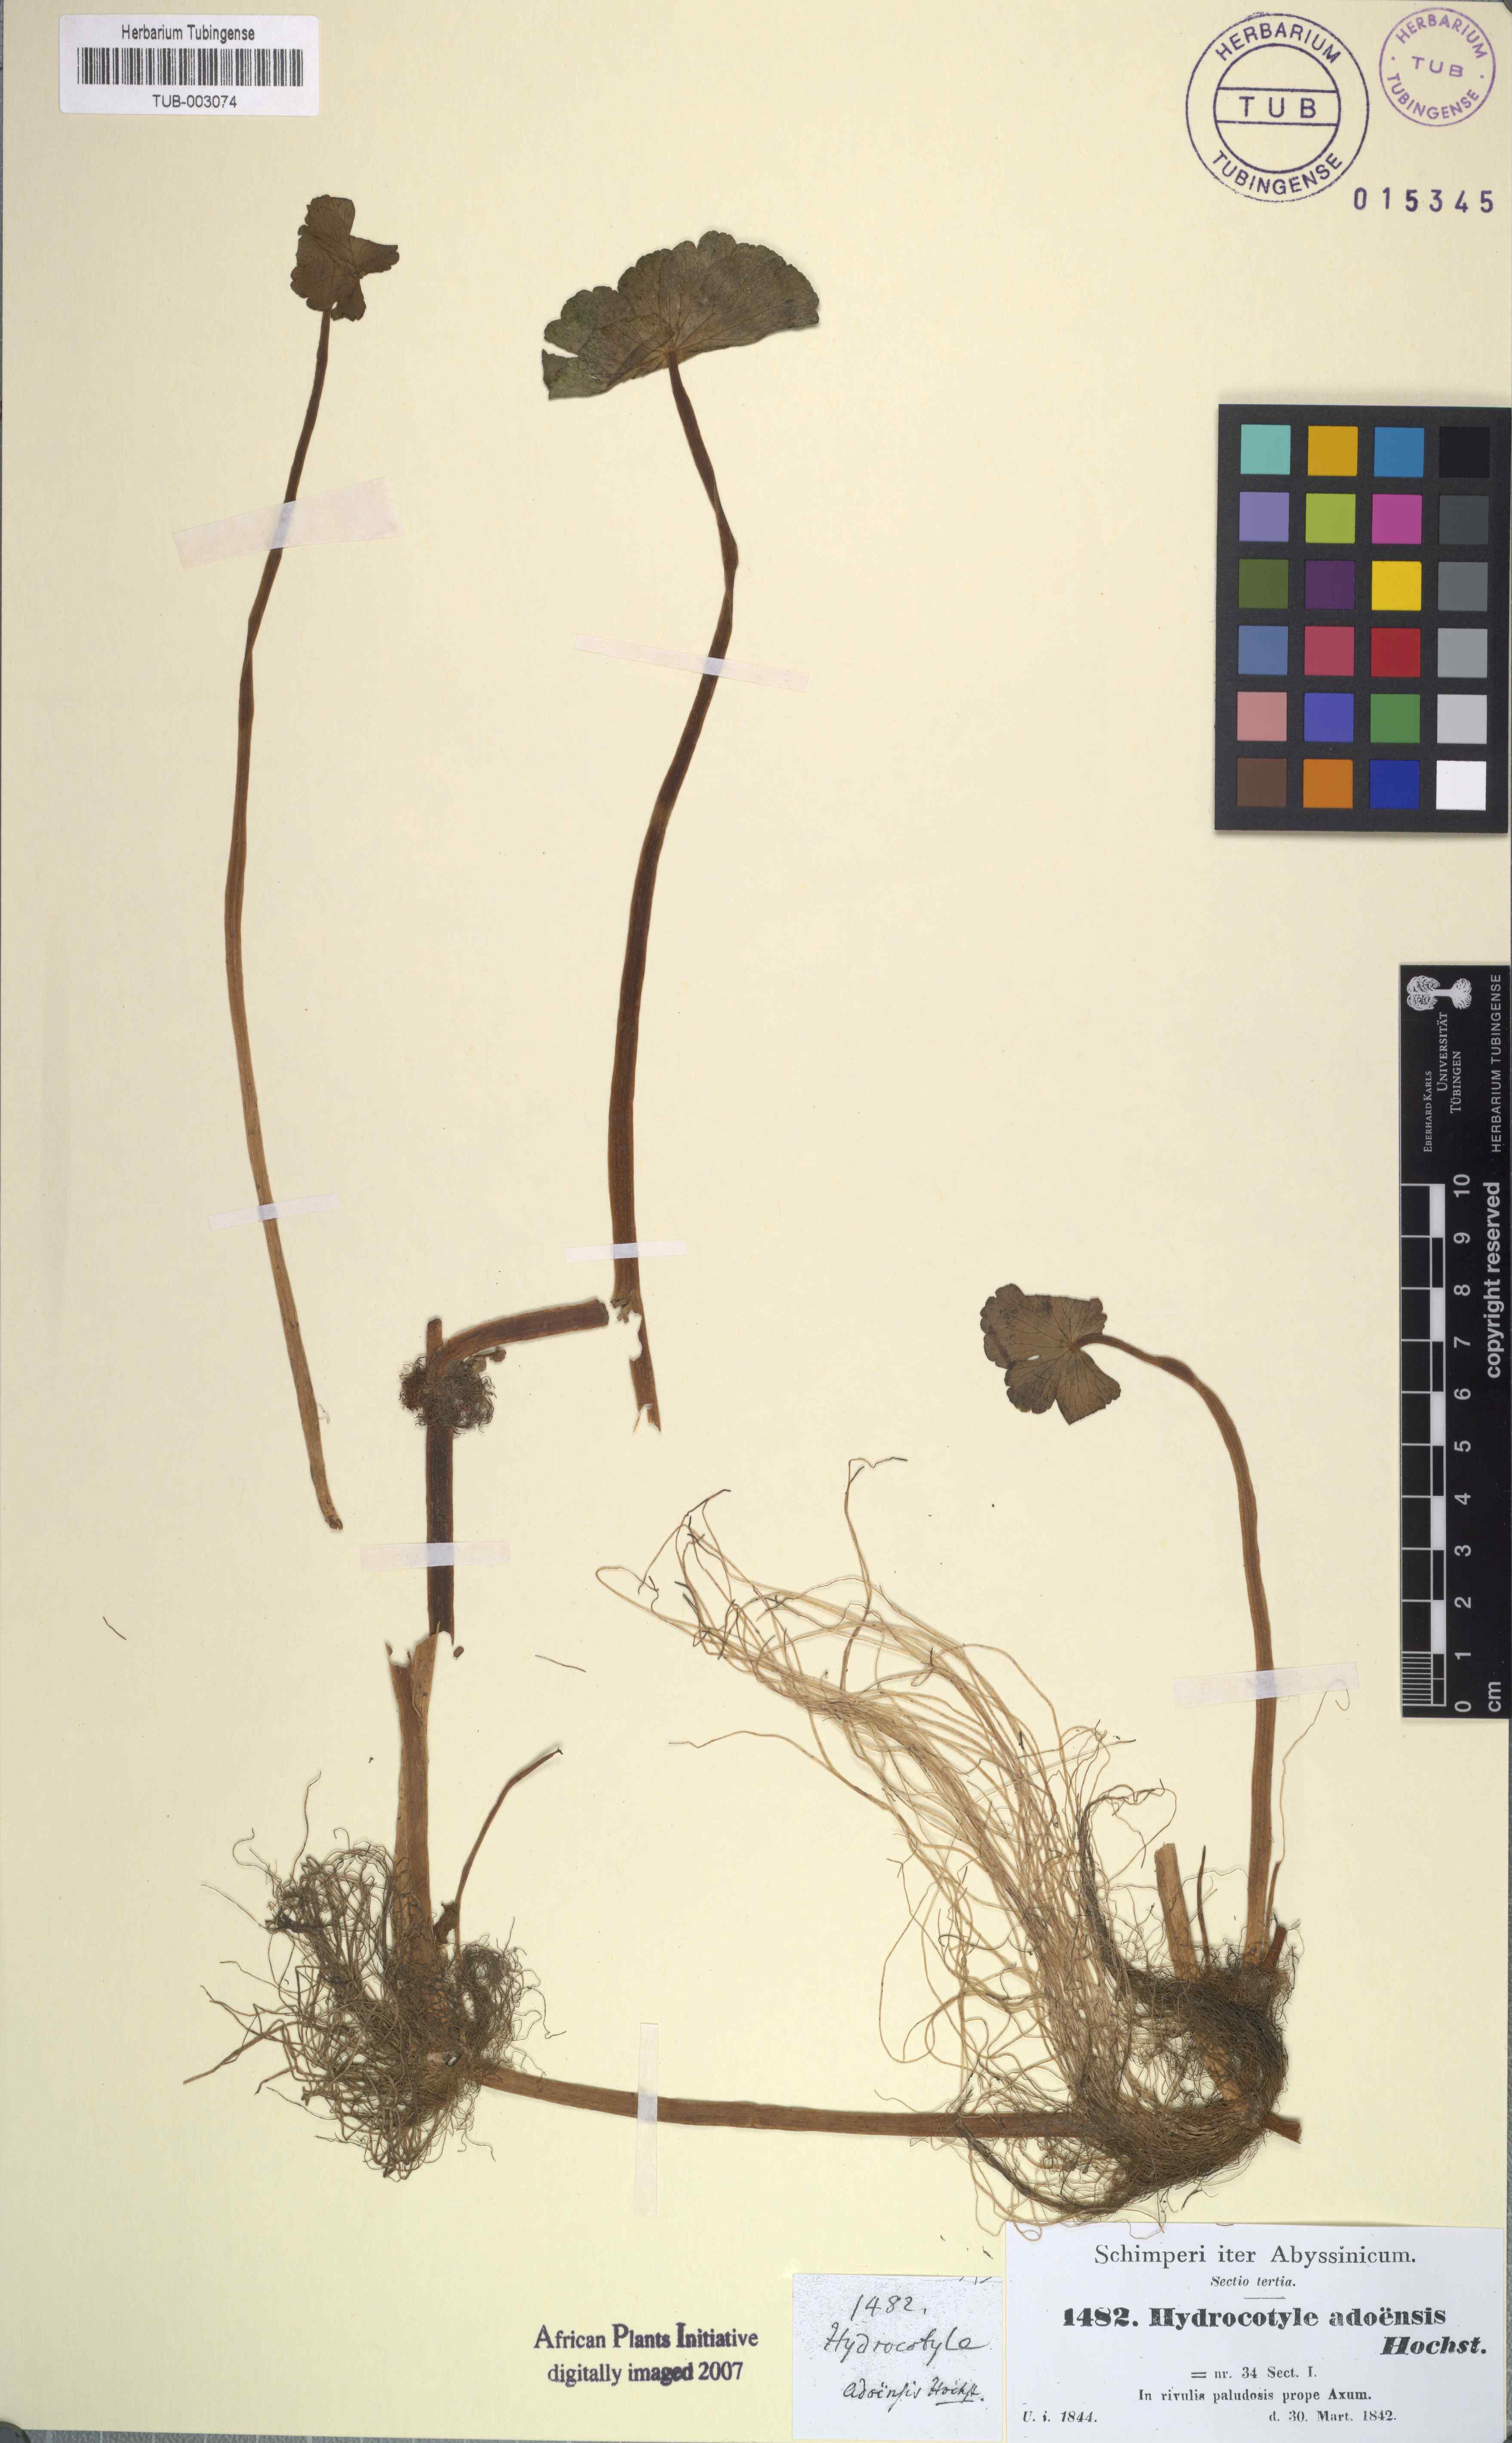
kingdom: Plantae
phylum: Tracheophyta
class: Magnoliopsida
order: Apiales
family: Araliaceae
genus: Hydrocotyle
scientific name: Hydrocotyle ranunculoides
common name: Floating pennywort
